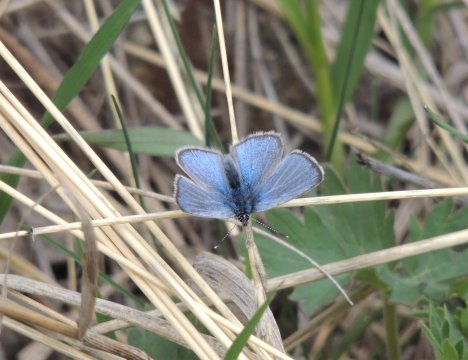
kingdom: Animalia
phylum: Arthropoda
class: Insecta
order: Lepidoptera
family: Lycaenidae
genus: Glaucopsyche
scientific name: Glaucopsyche lygdamus
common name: Silvery Blue
